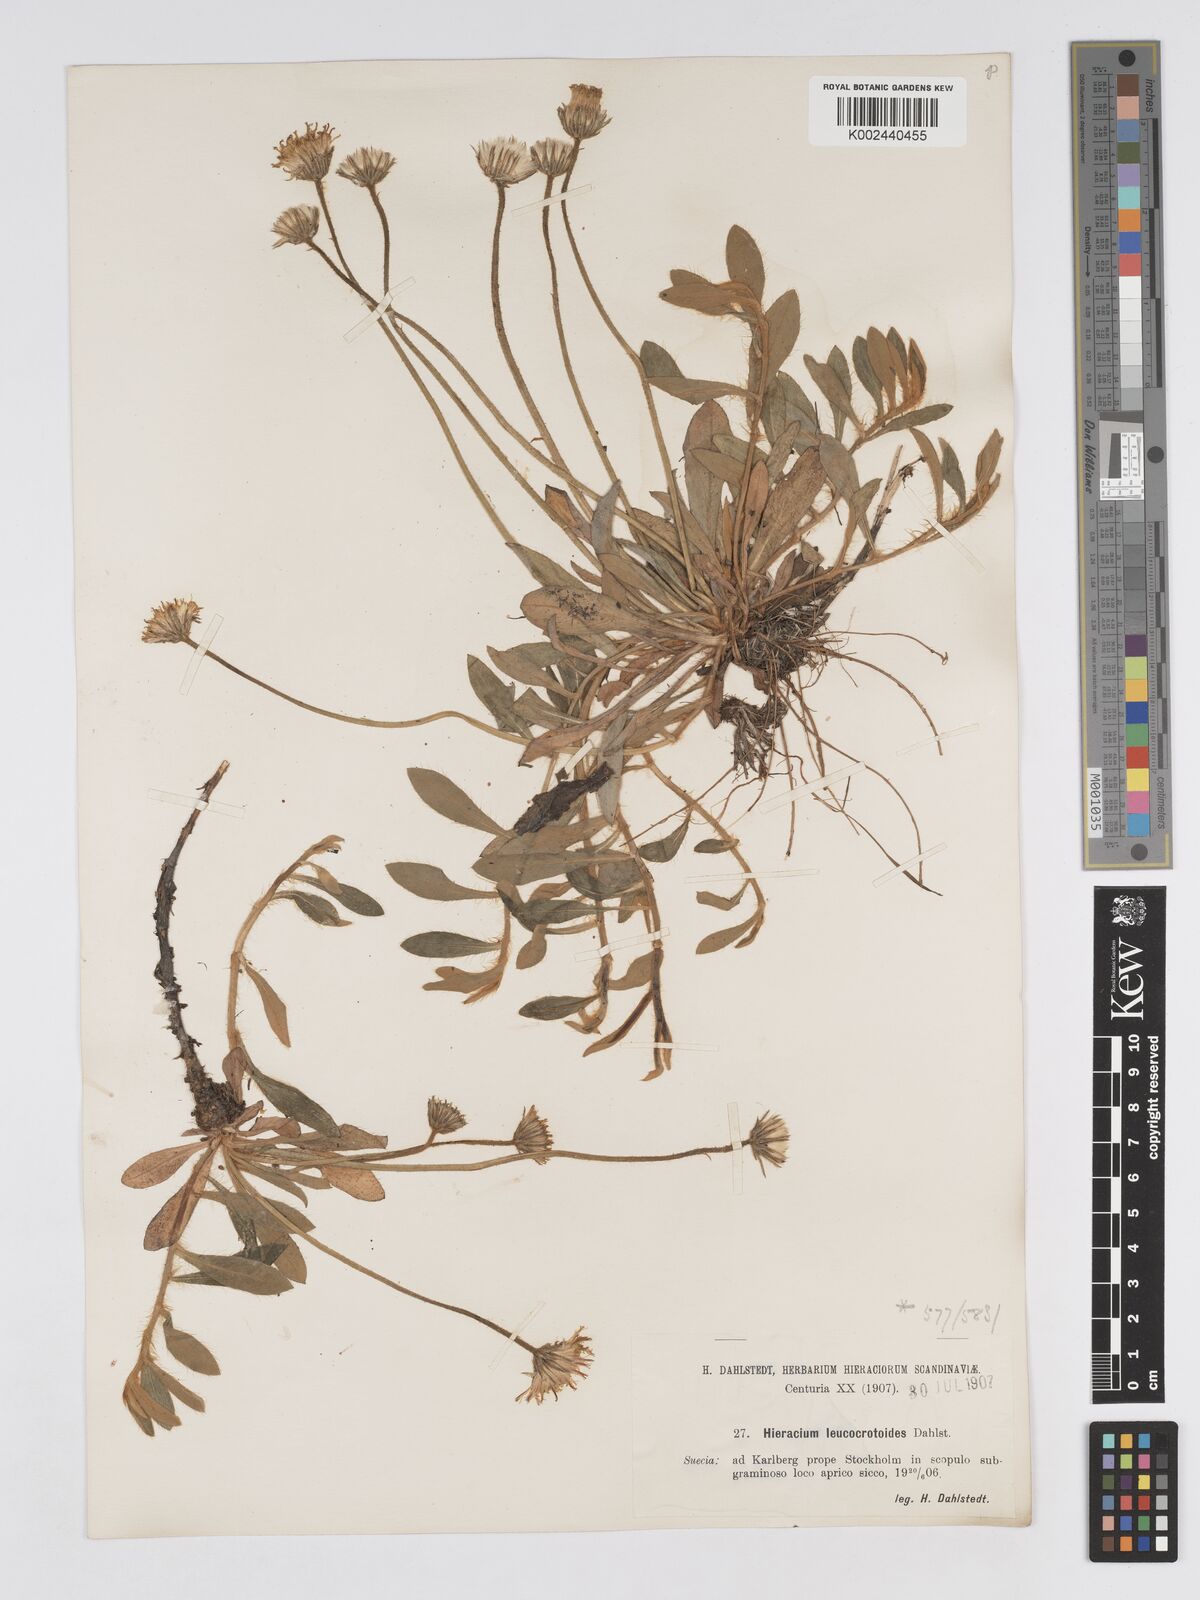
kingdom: Plantae
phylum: Tracheophyta
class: Magnoliopsida
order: Asterales
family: Asteraceae
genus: Hieracium
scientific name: Hieracium
